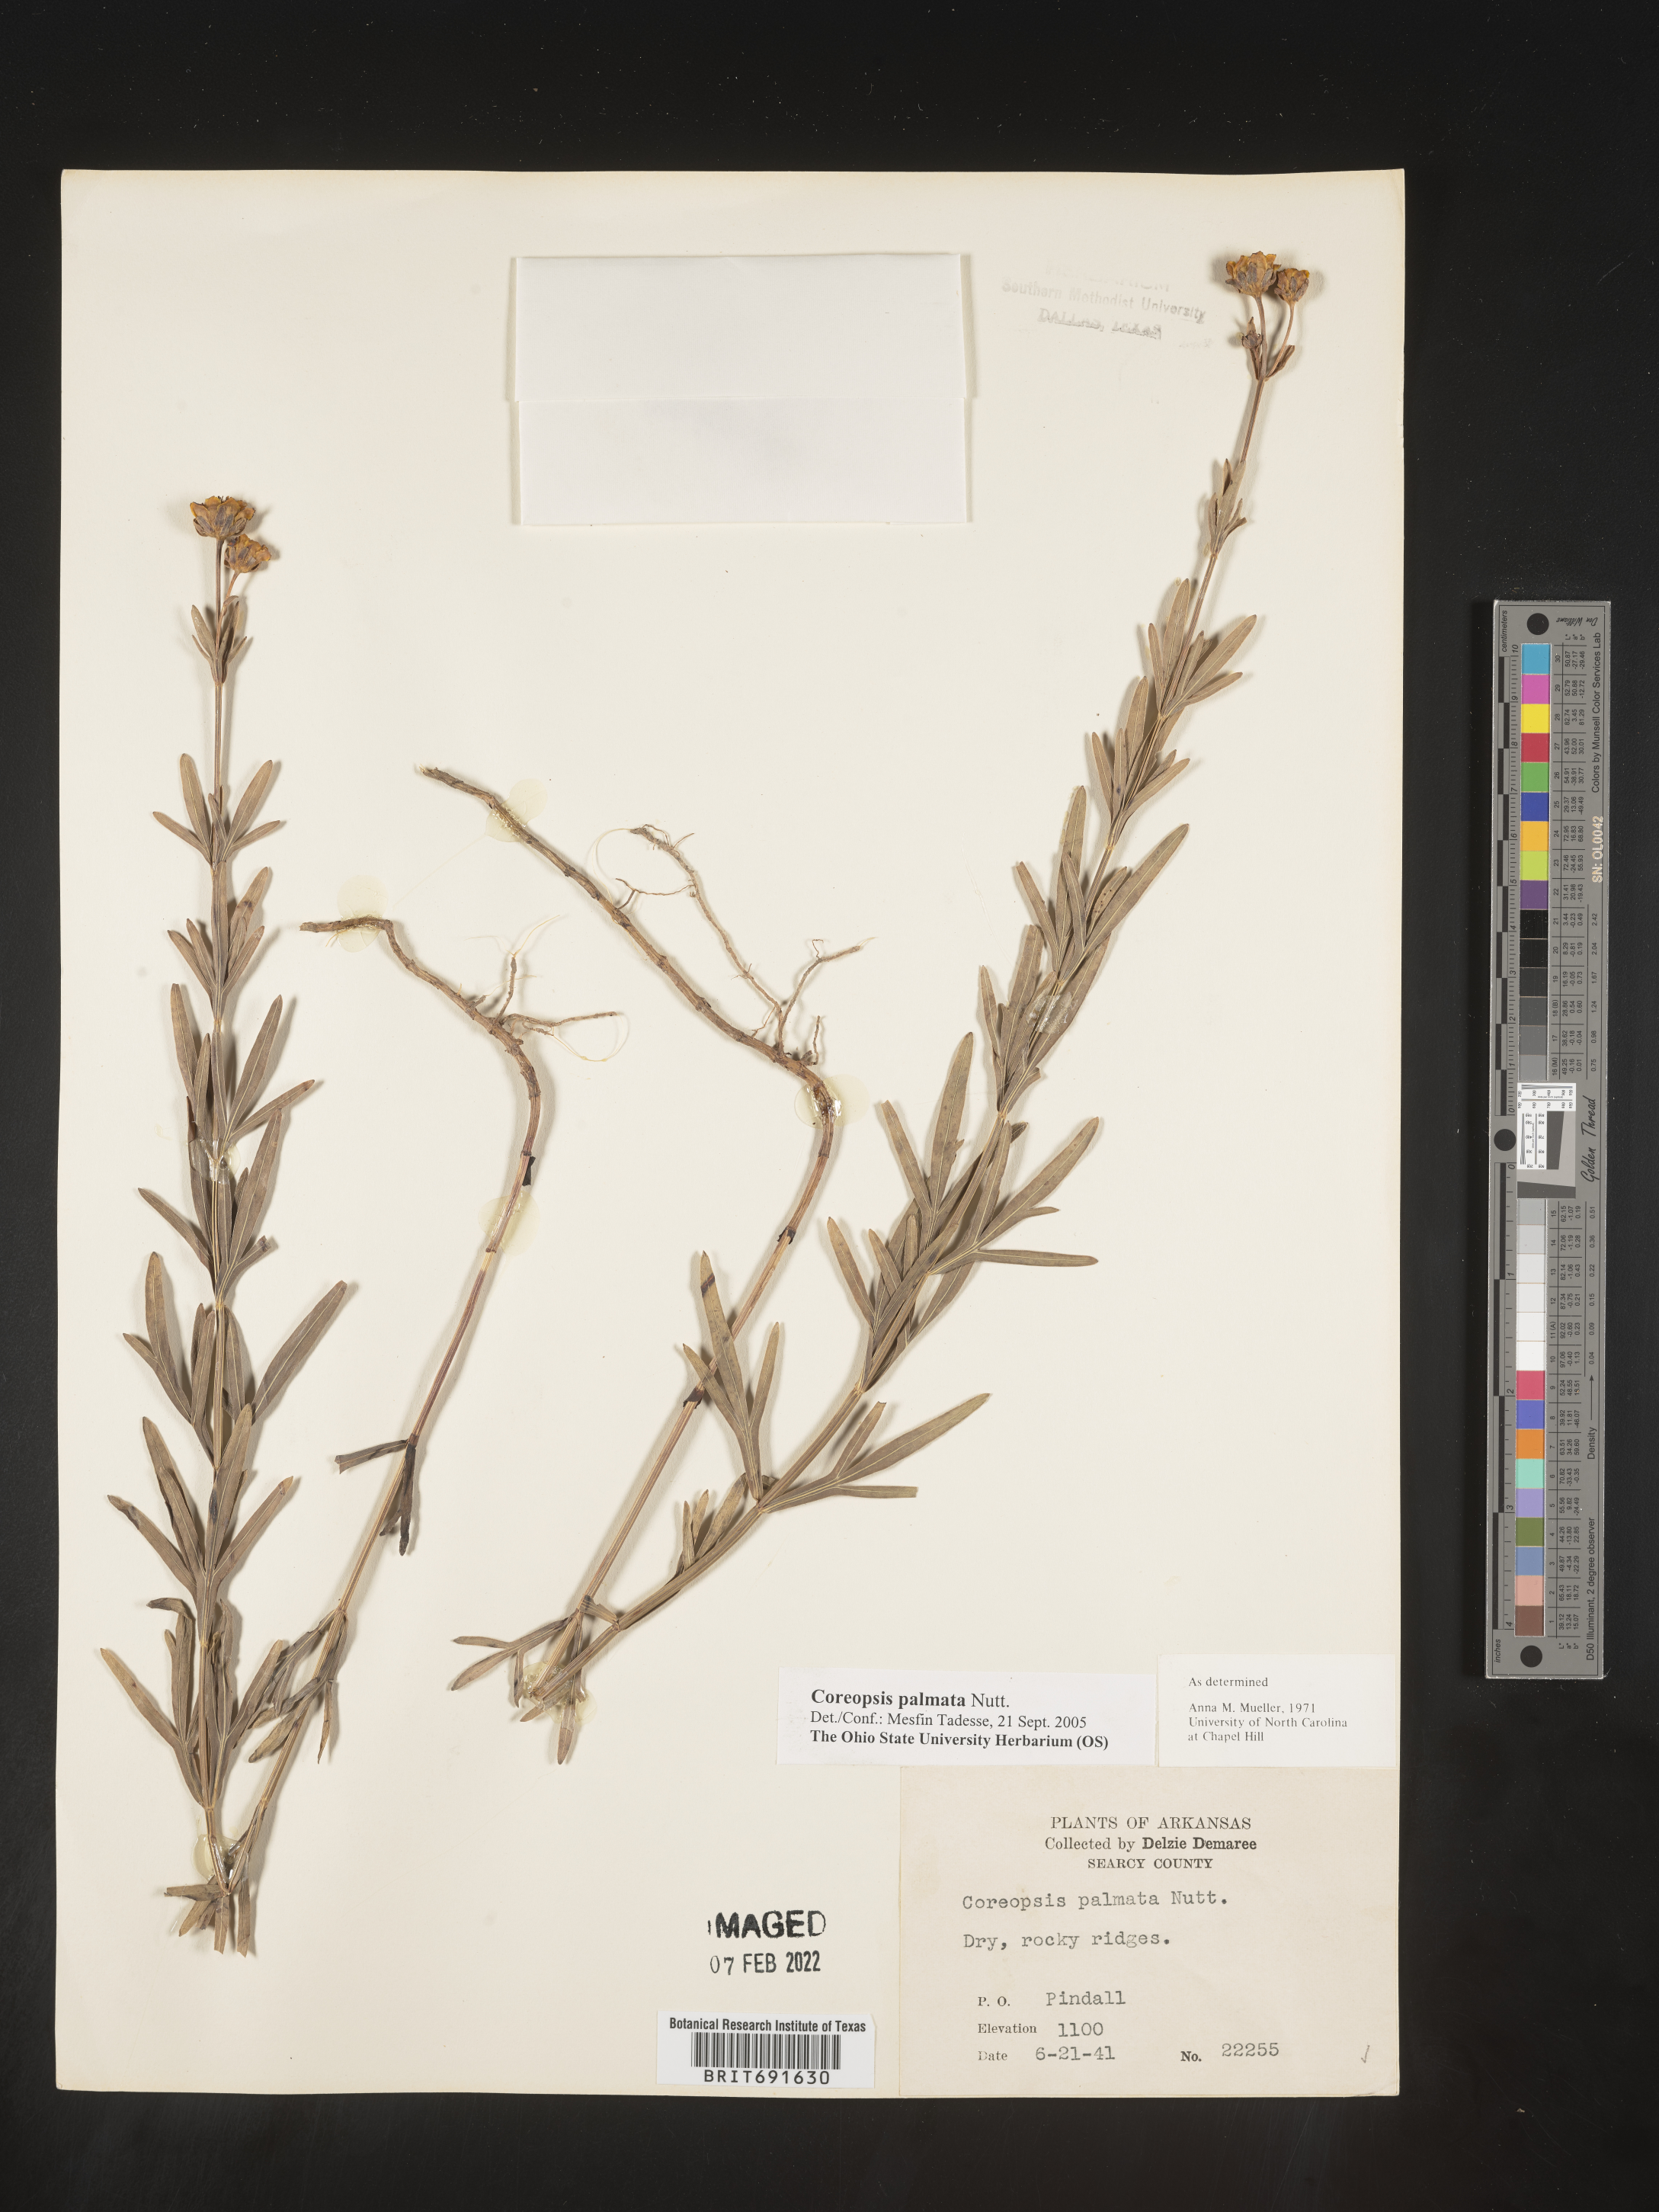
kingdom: Plantae
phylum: Tracheophyta
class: Magnoliopsida
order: Asterales
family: Asteraceae
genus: Coreopsis
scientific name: Coreopsis palmata
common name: Prairie coreopsis
